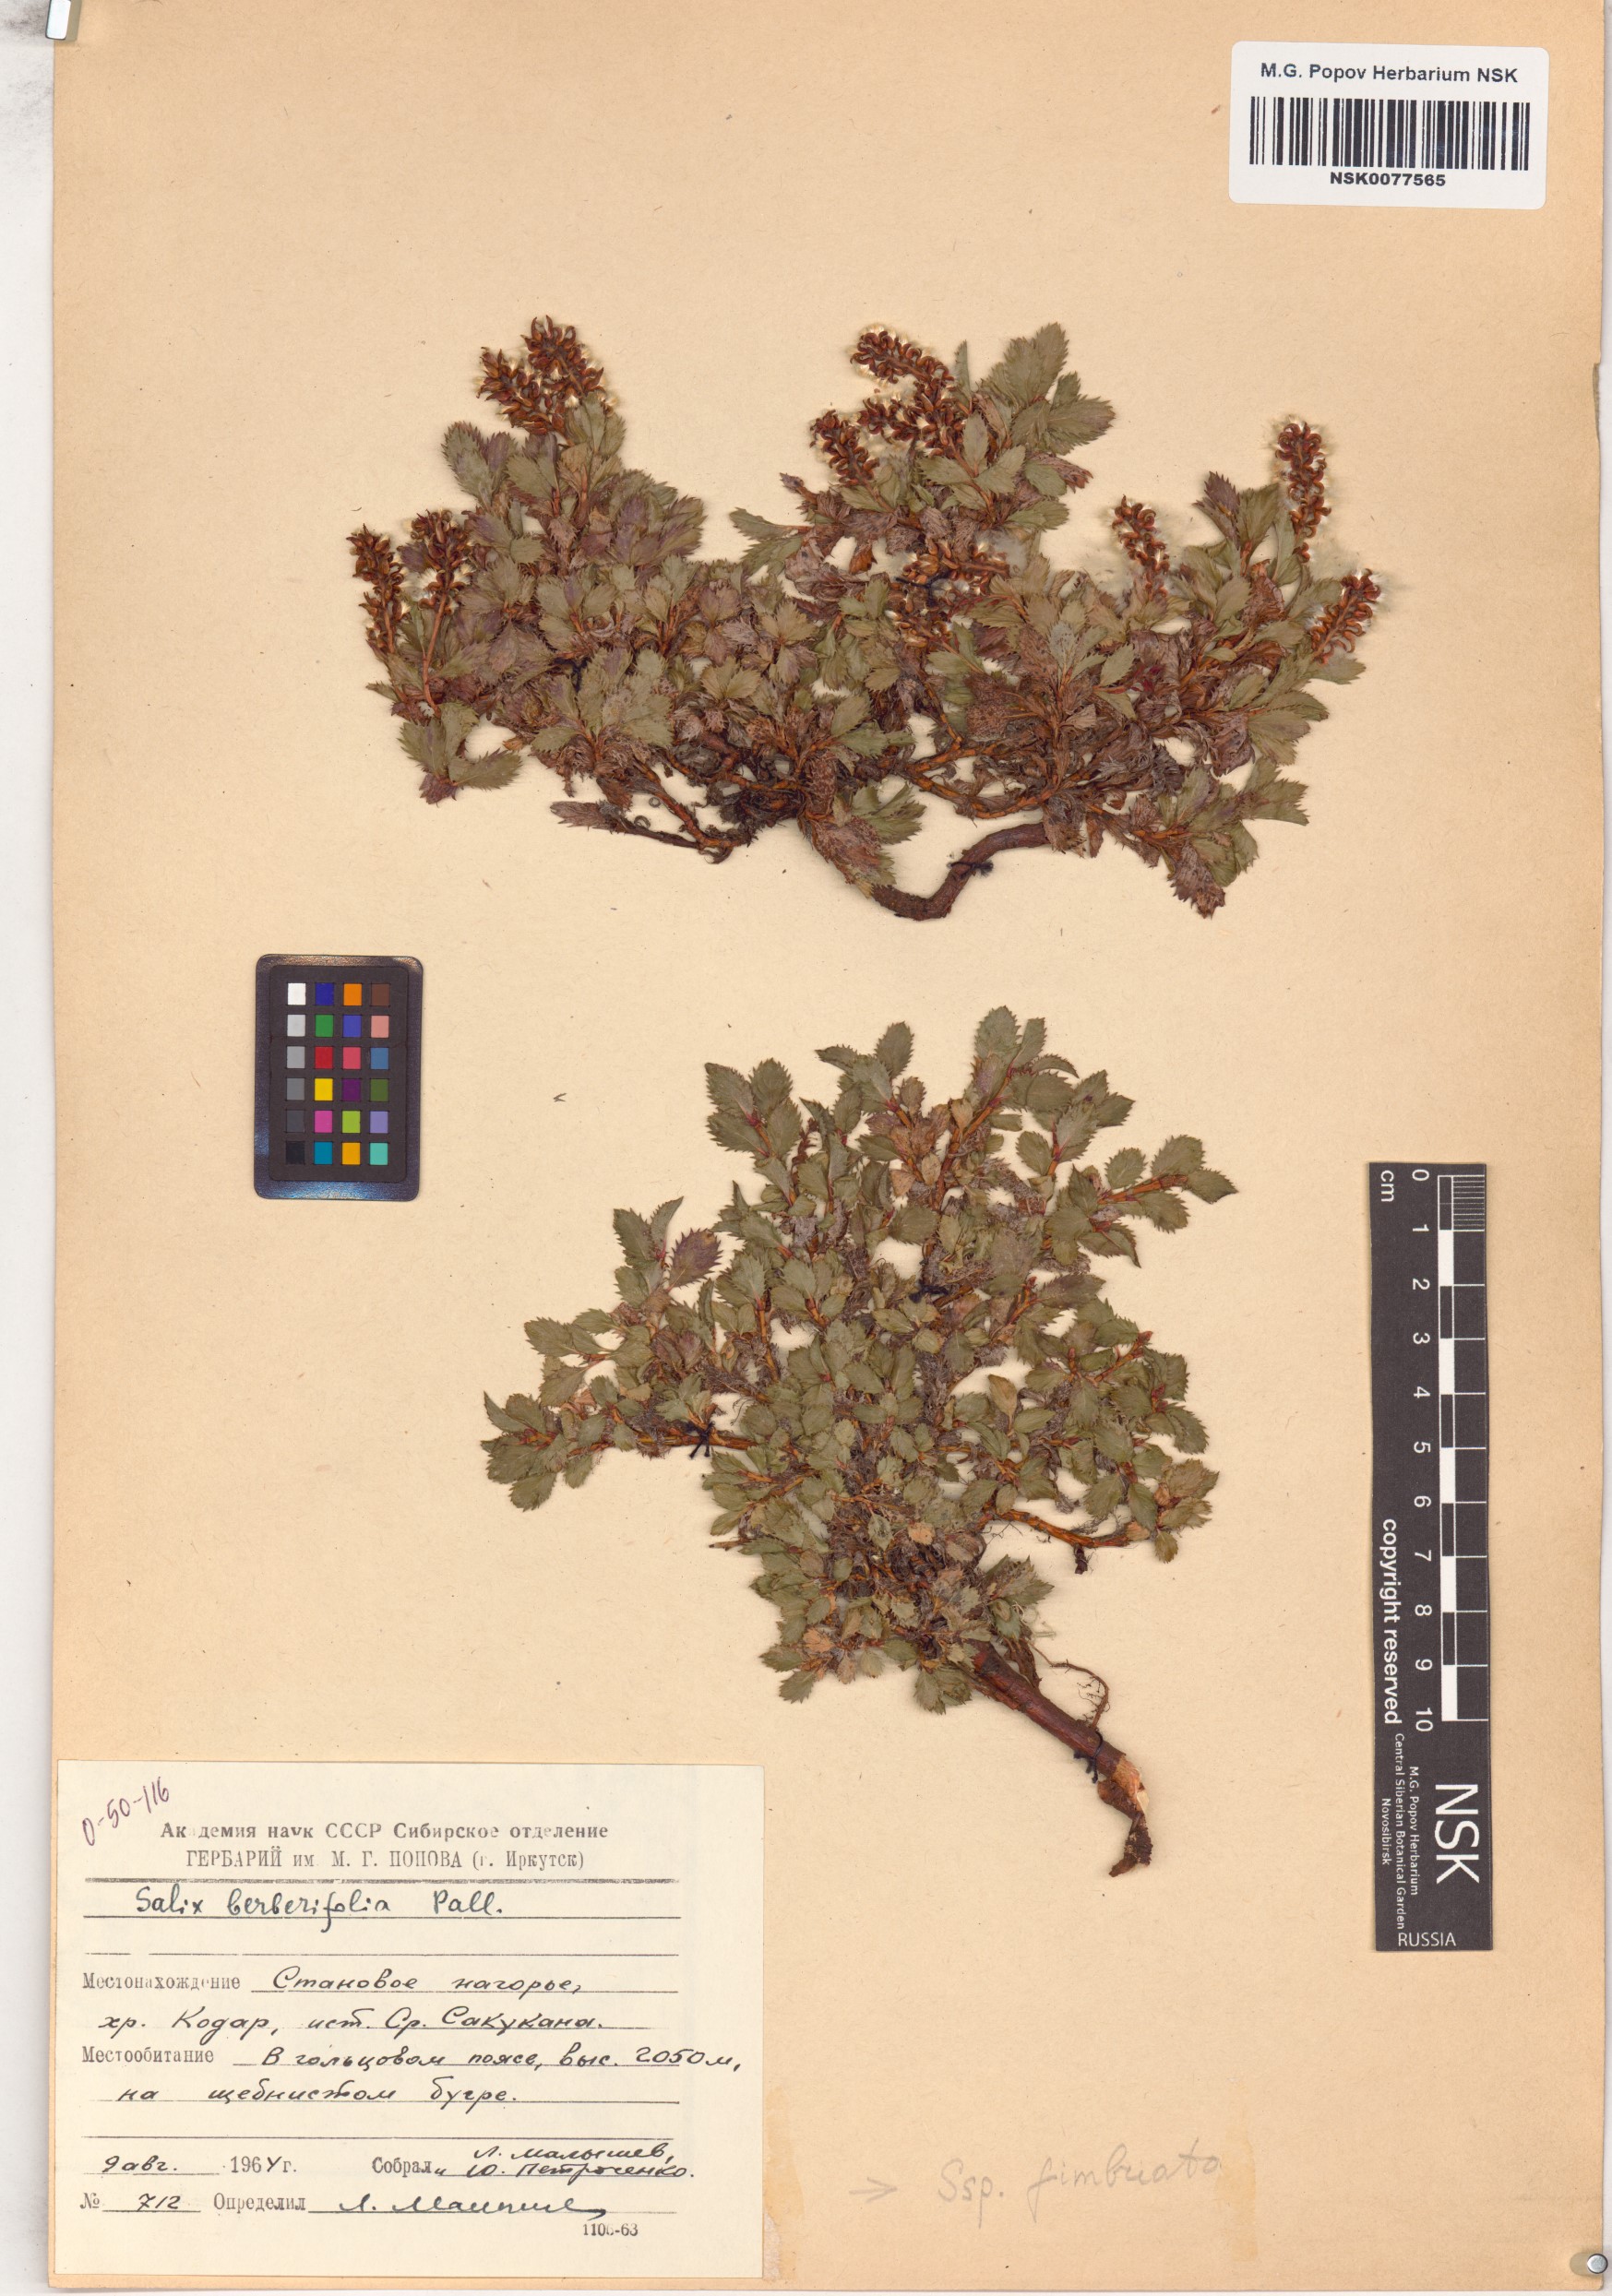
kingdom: Plantae
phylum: Tracheophyta
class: Magnoliopsida
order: Malpighiales
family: Salicaceae
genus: Salix
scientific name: Salix berberifolia
